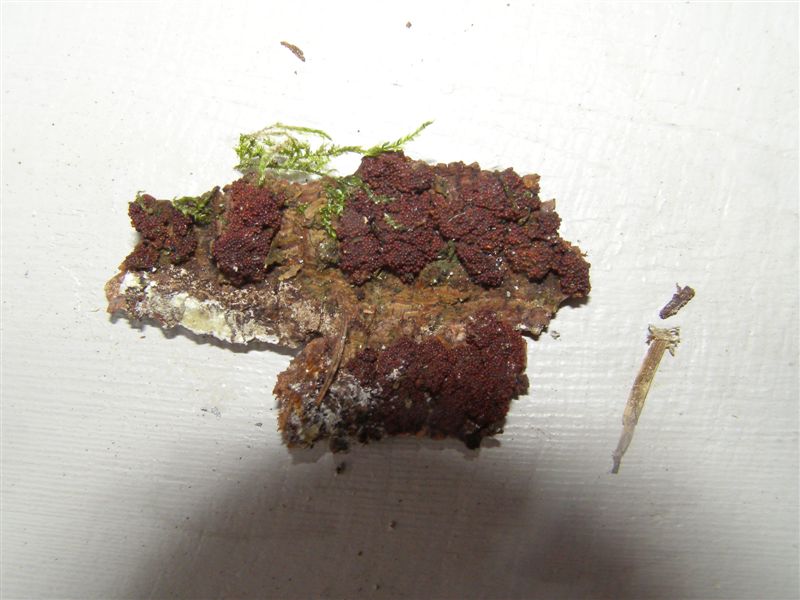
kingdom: Fungi
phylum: Ascomycota
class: Sordariomycetes
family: Thyridiaceae
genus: Thyronectria
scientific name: Thyronectria cucurbitula
